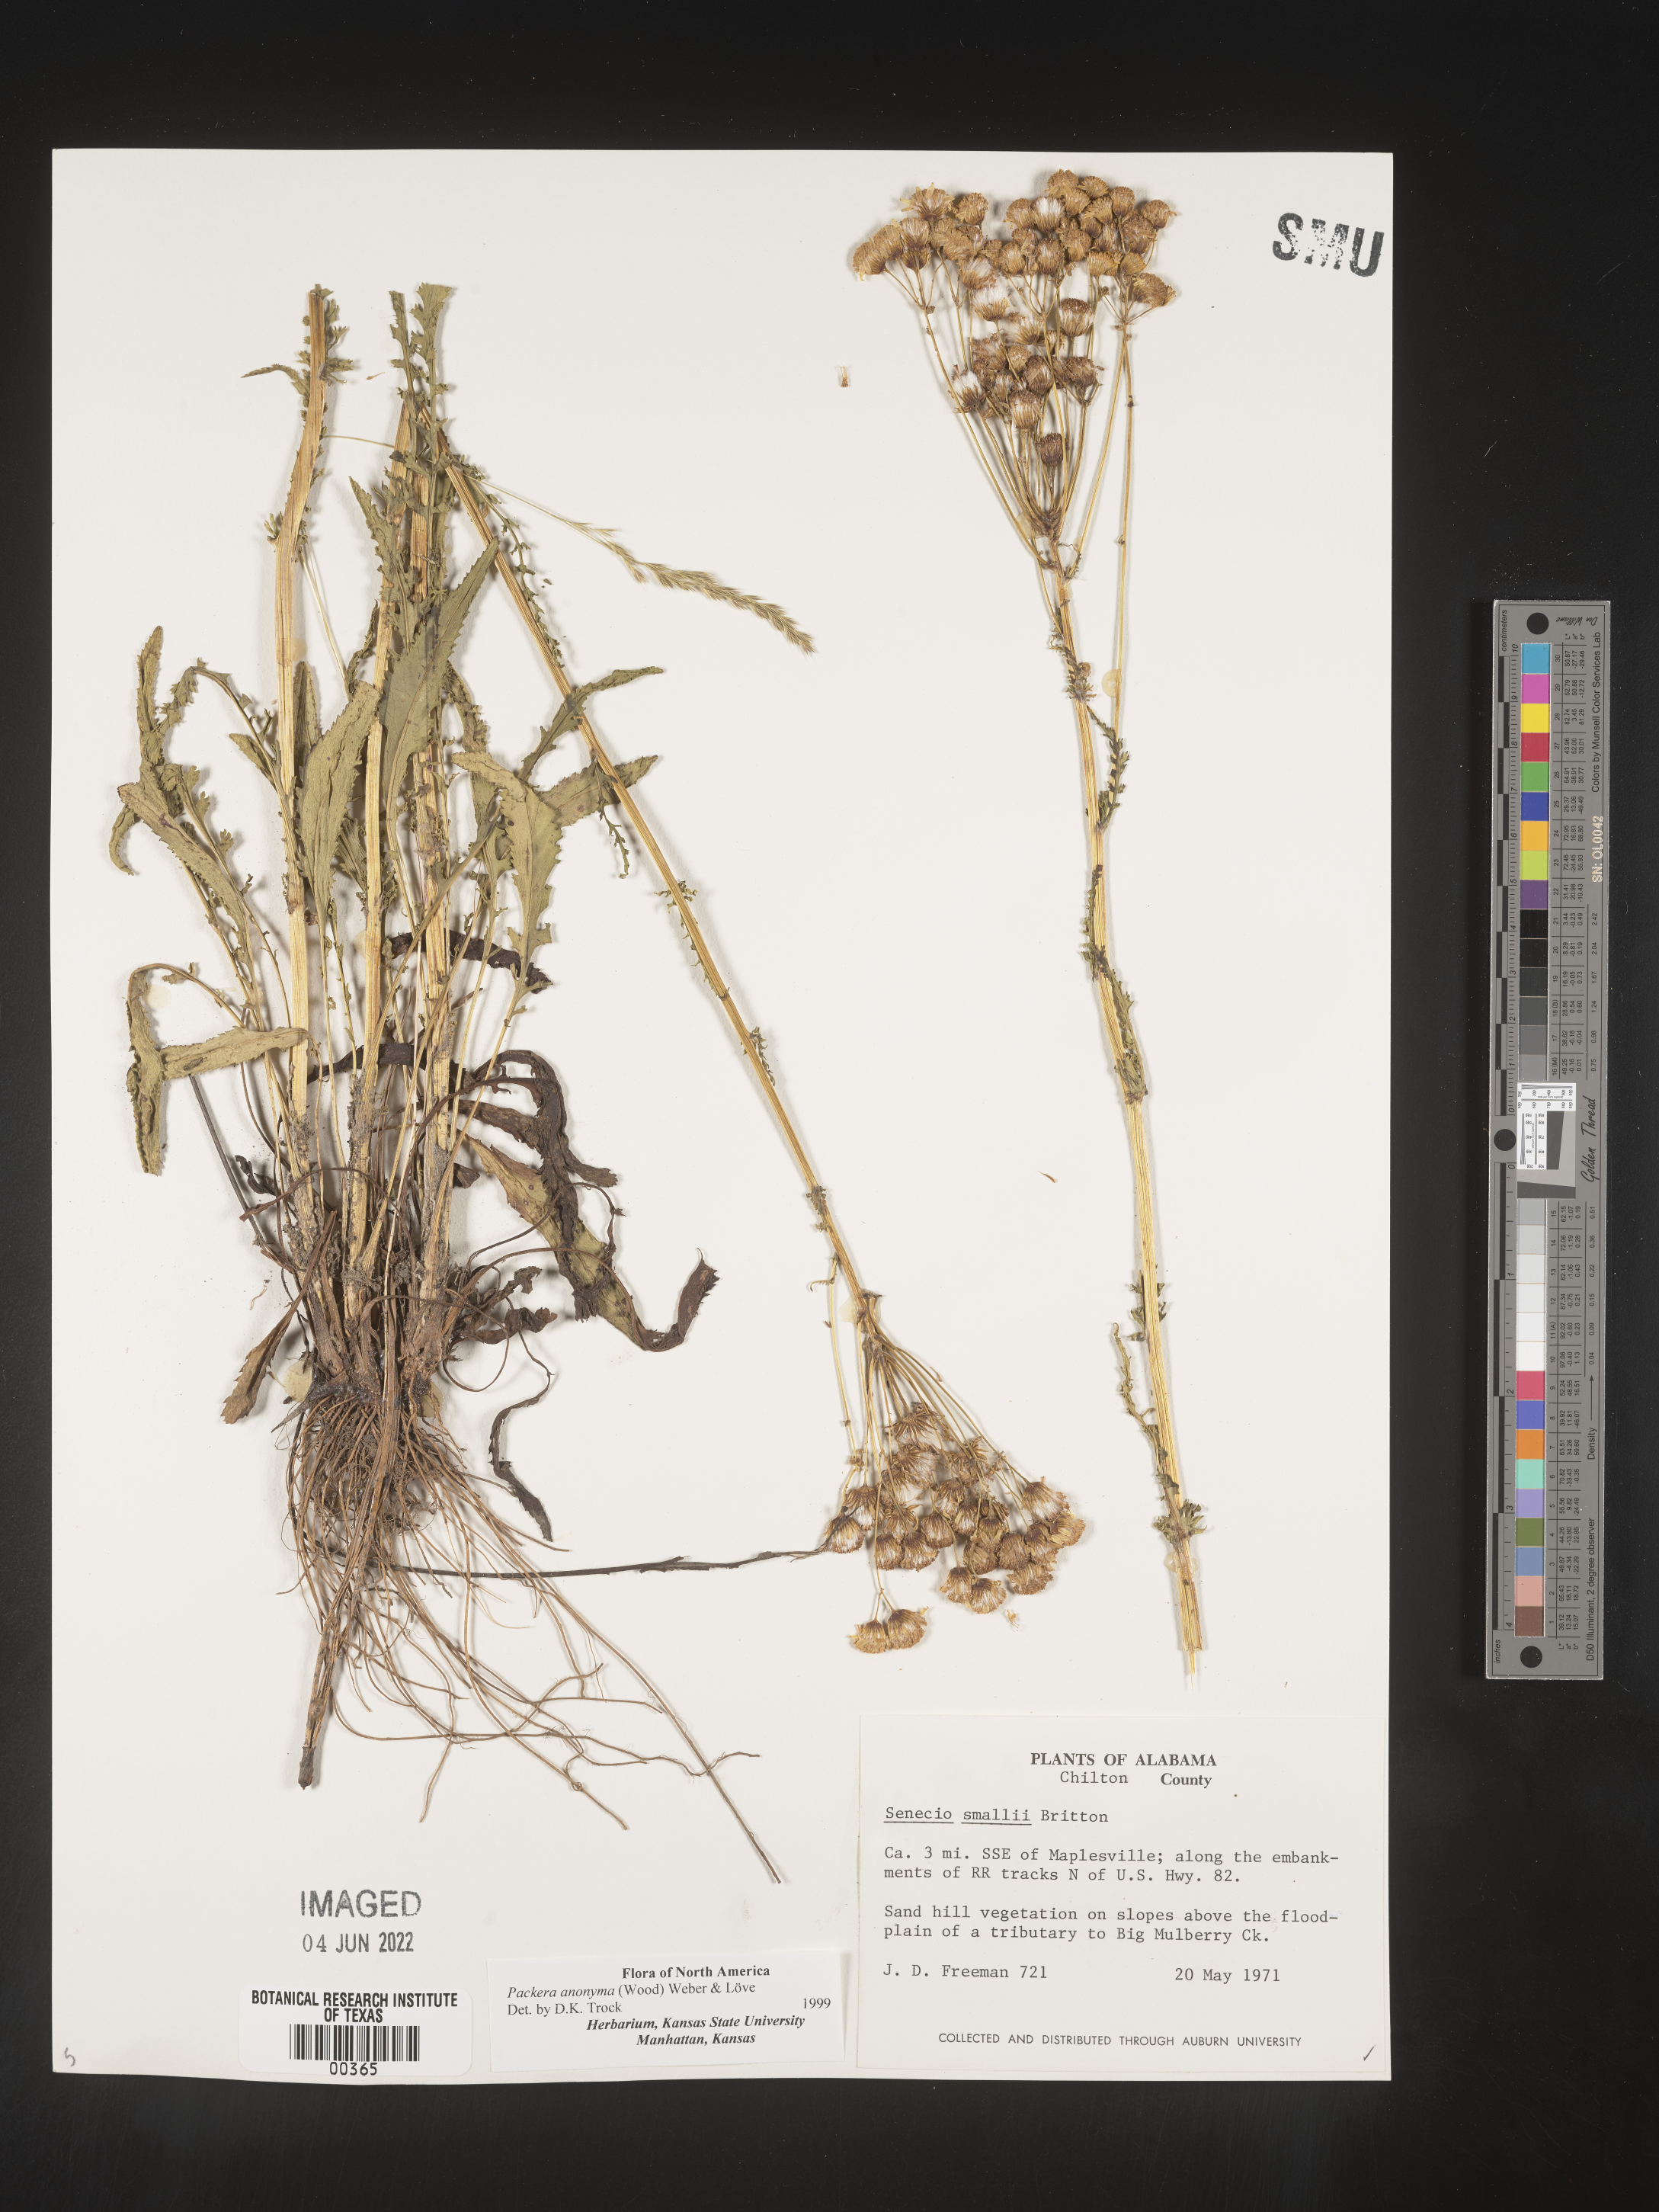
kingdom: Plantae
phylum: Tracheophyta
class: Magnoliopsida
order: Asterales
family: Asteraceae
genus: Packera
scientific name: Packera anonyma
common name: Small ragwort
